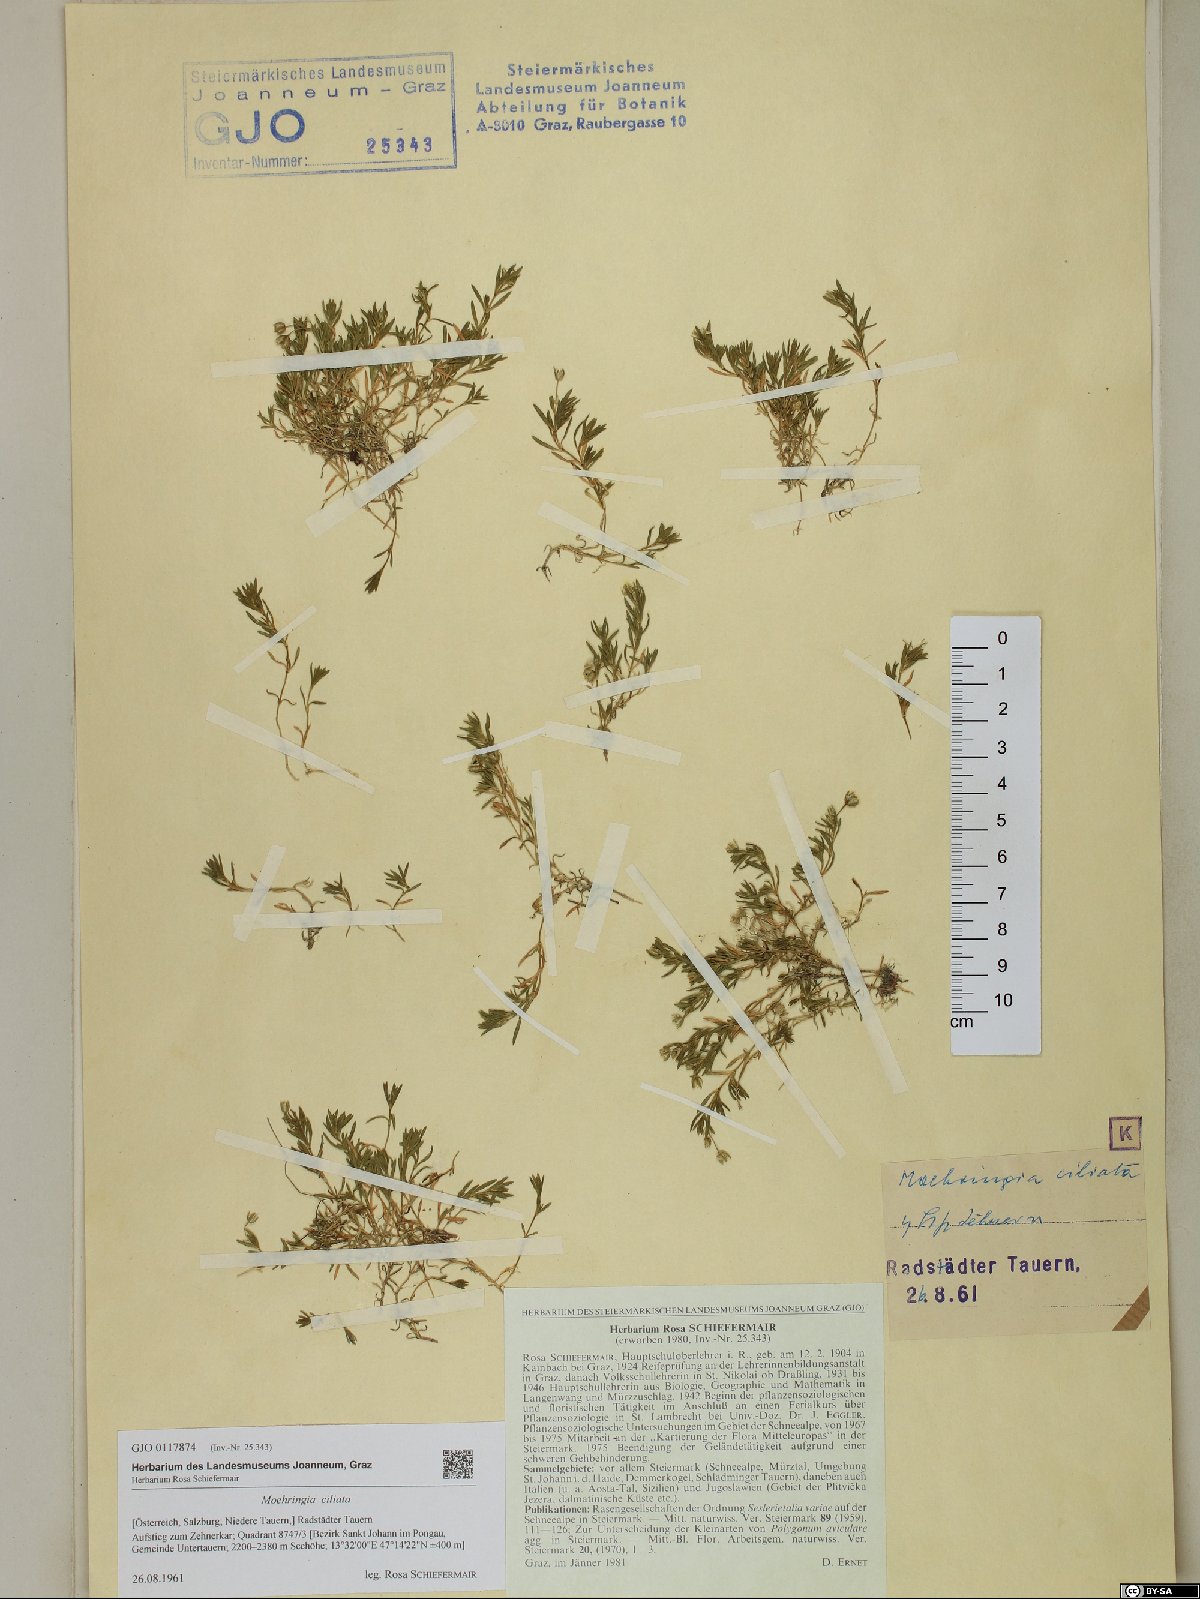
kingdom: Plantae
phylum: Tracheophyta
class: Magnoliopsida
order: Caryophyllales
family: Caryophyllaceae
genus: Moehringia
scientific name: Moehringia ciliata
